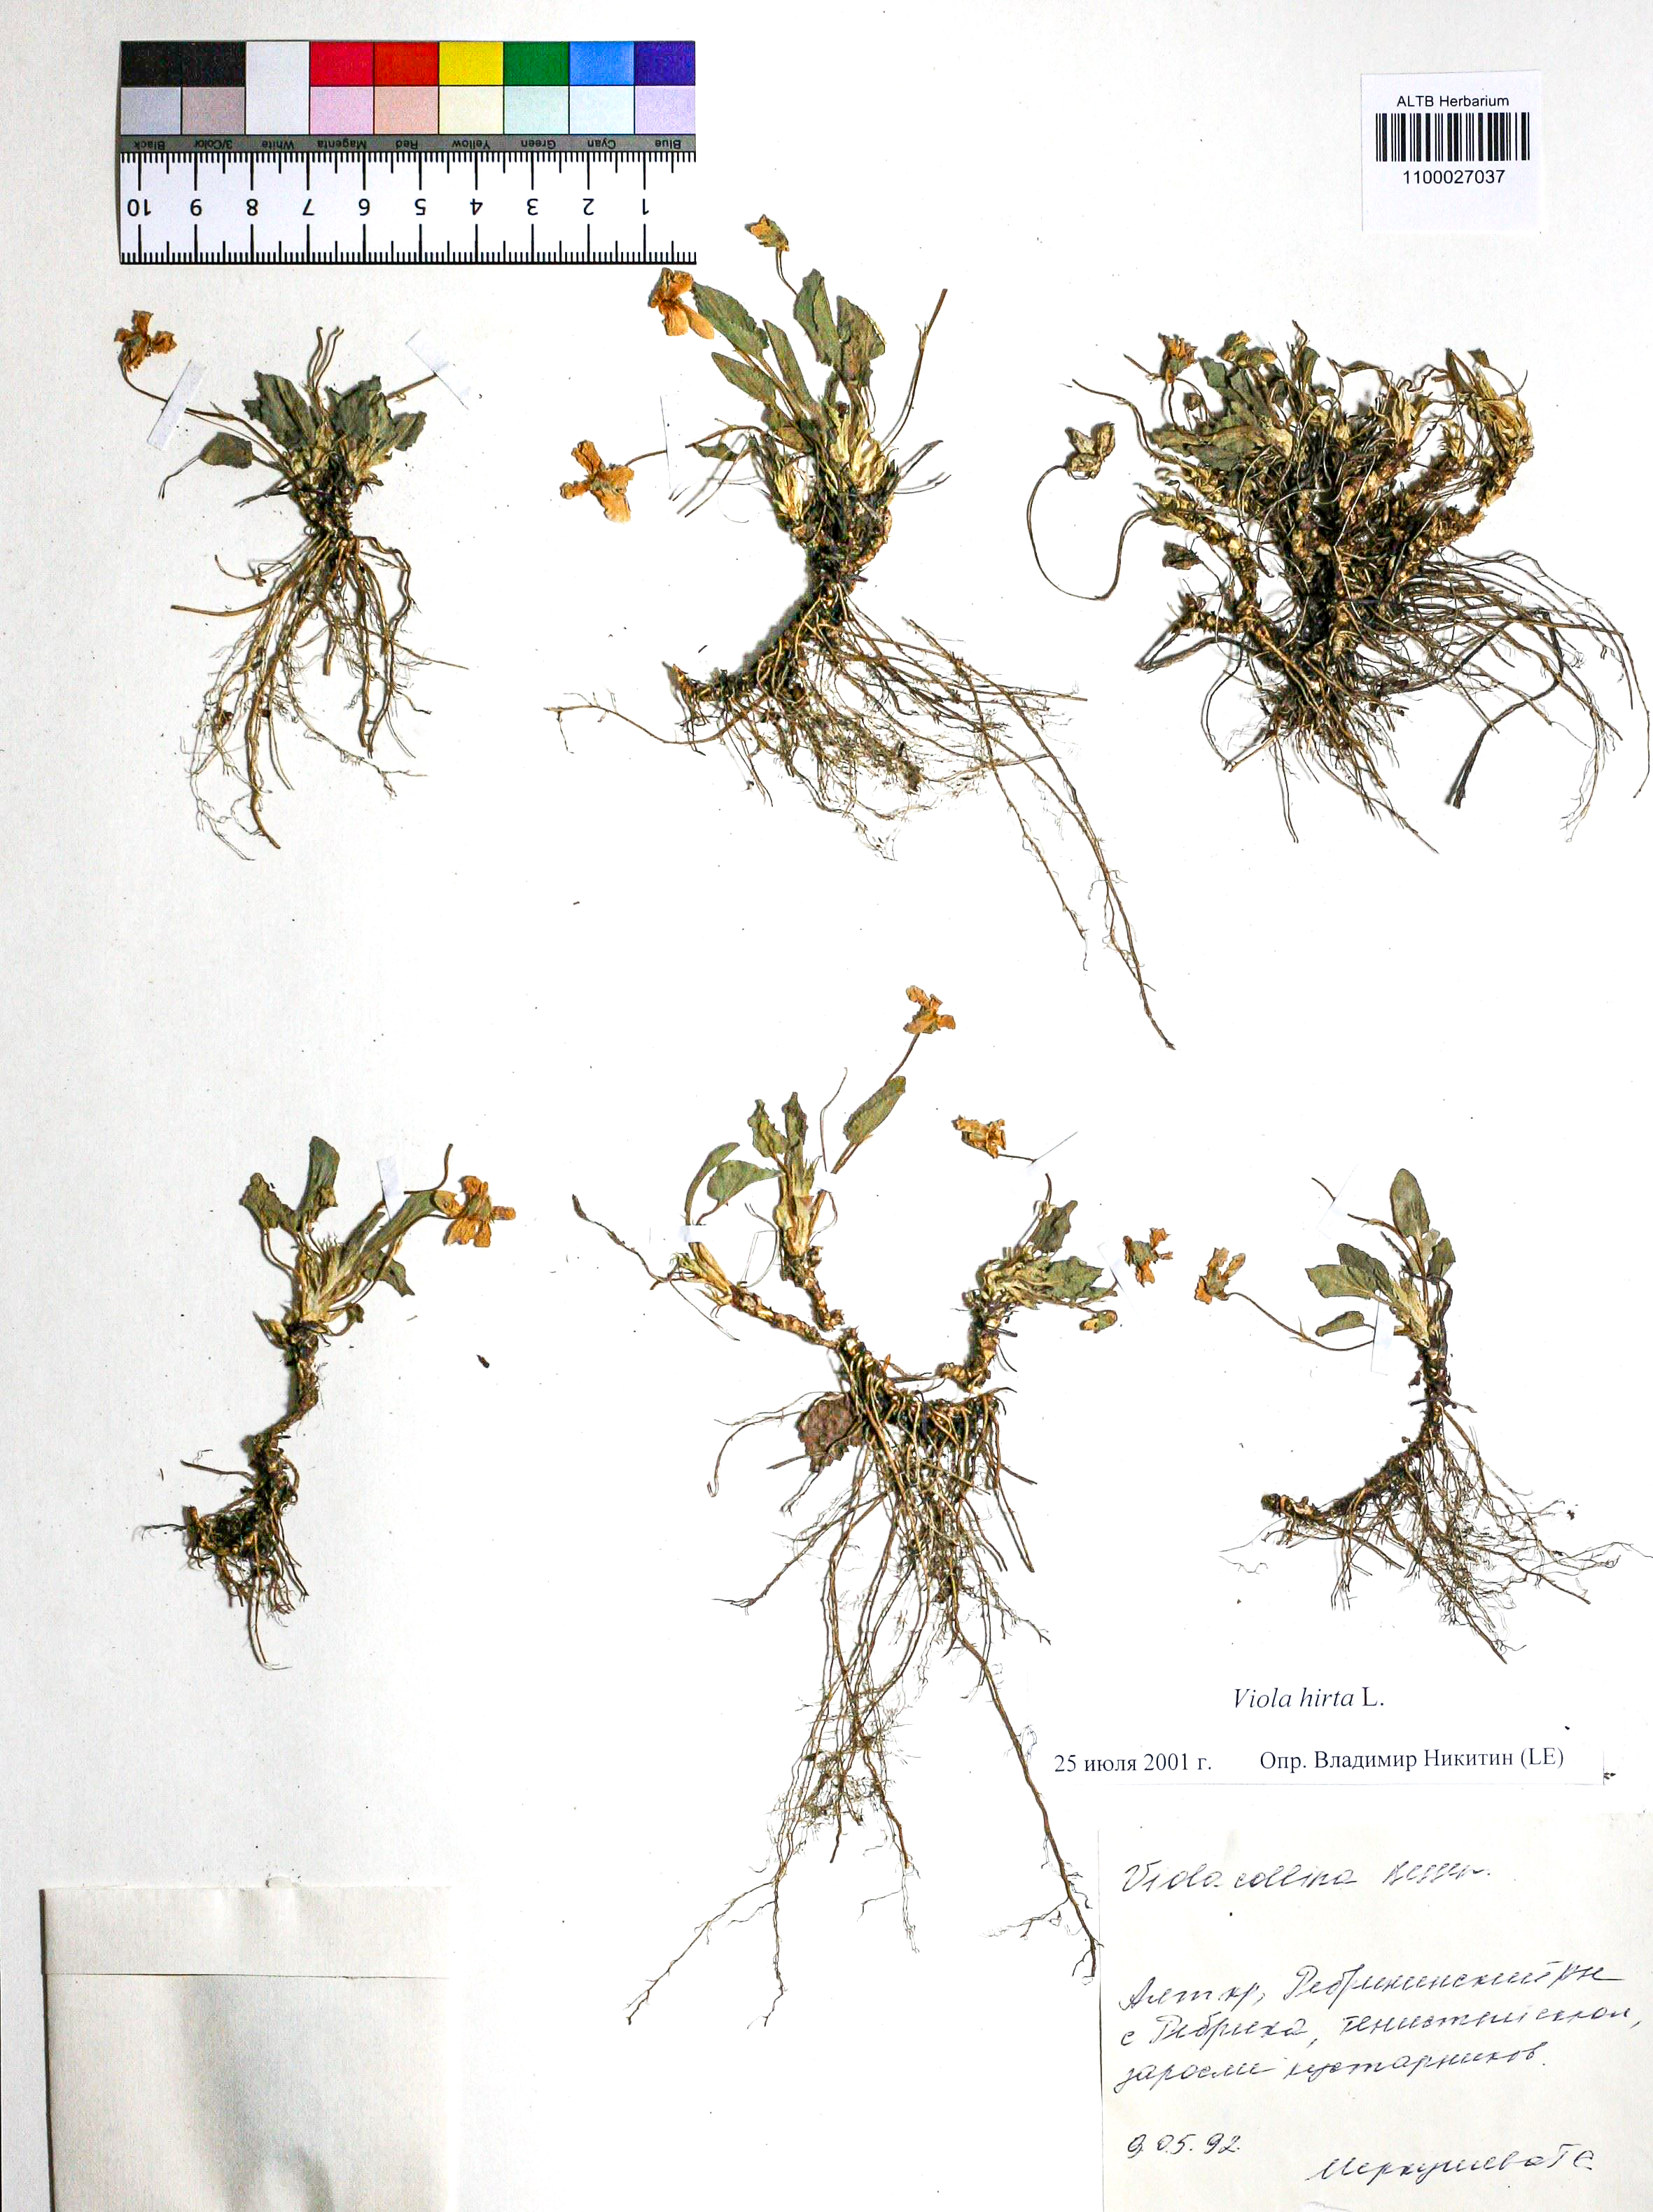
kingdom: Plantae
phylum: Tracheophyta
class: Magnoliopsida
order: Malpighiales
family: Violaceae
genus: Viola
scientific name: Viola hirta
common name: Hairy violet
